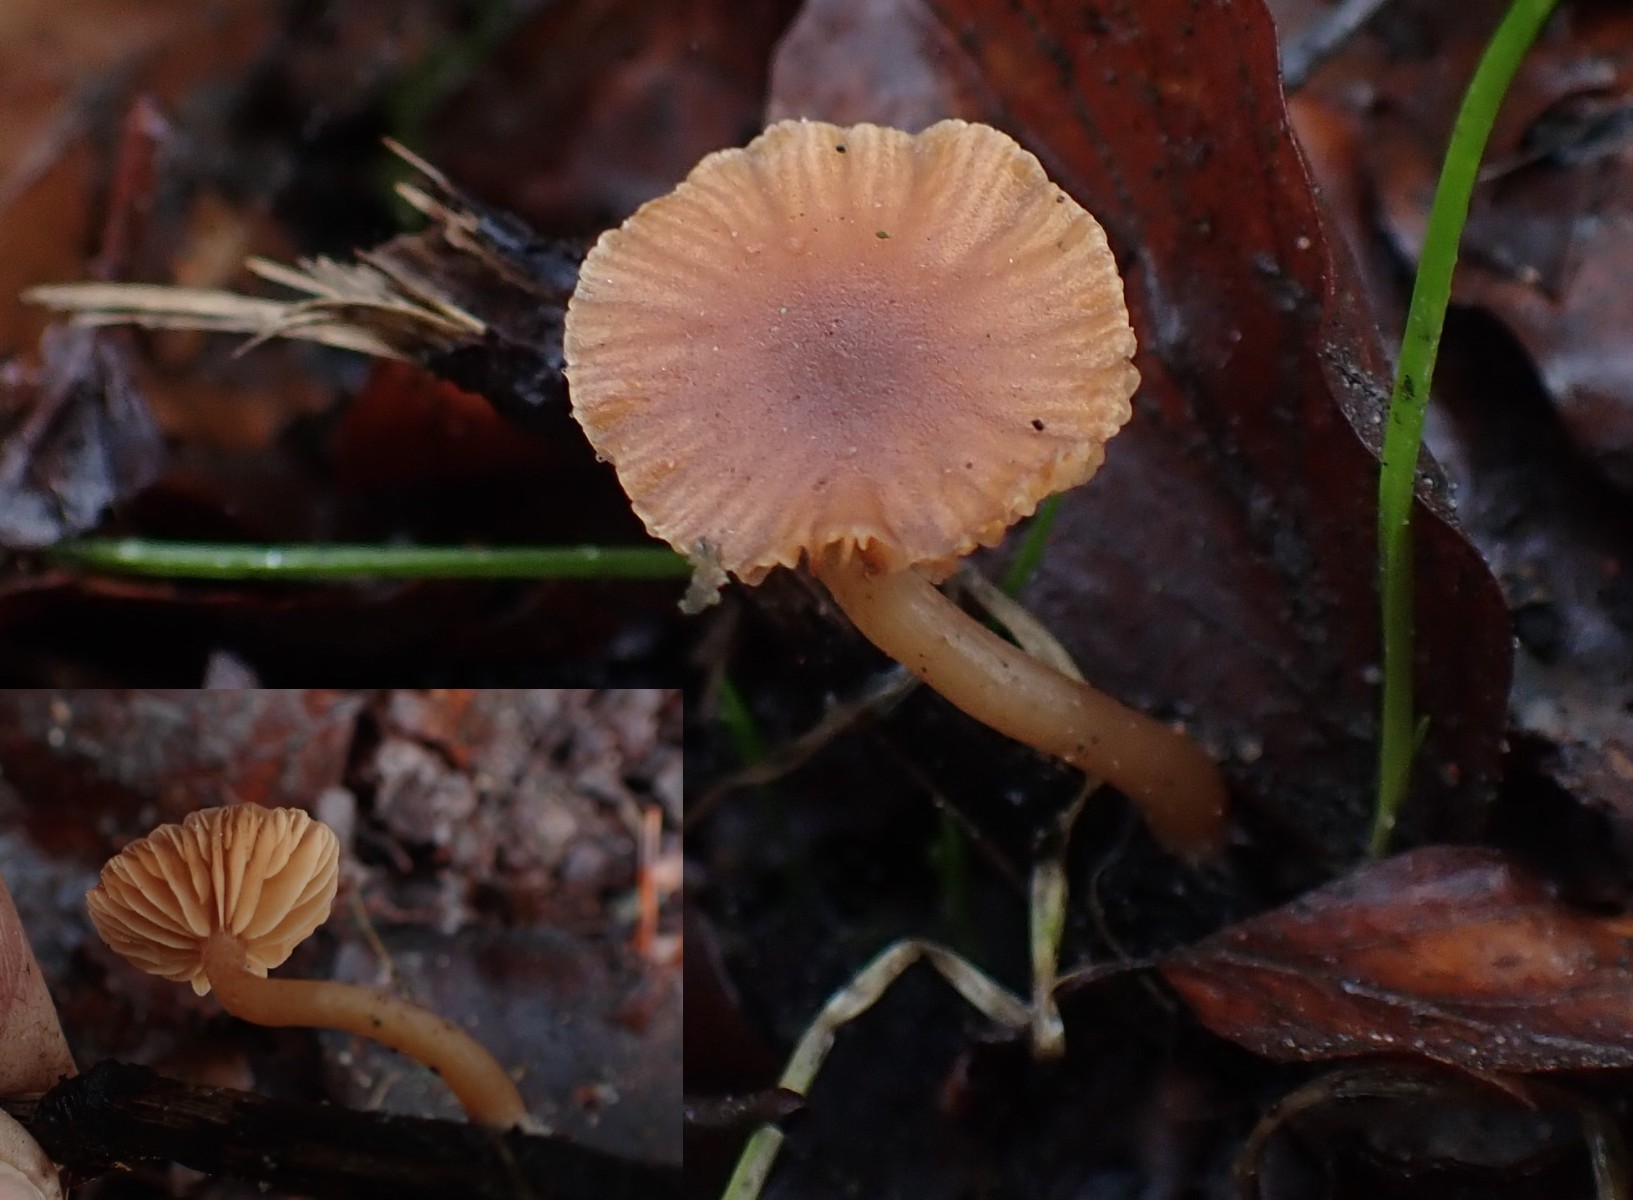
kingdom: Fungi
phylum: Basidiomycota
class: Agaricomycetes
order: Agaricales
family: Tubariaceae
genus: Tubaria
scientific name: Tubaria furfuracea
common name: kliddet fnughat
